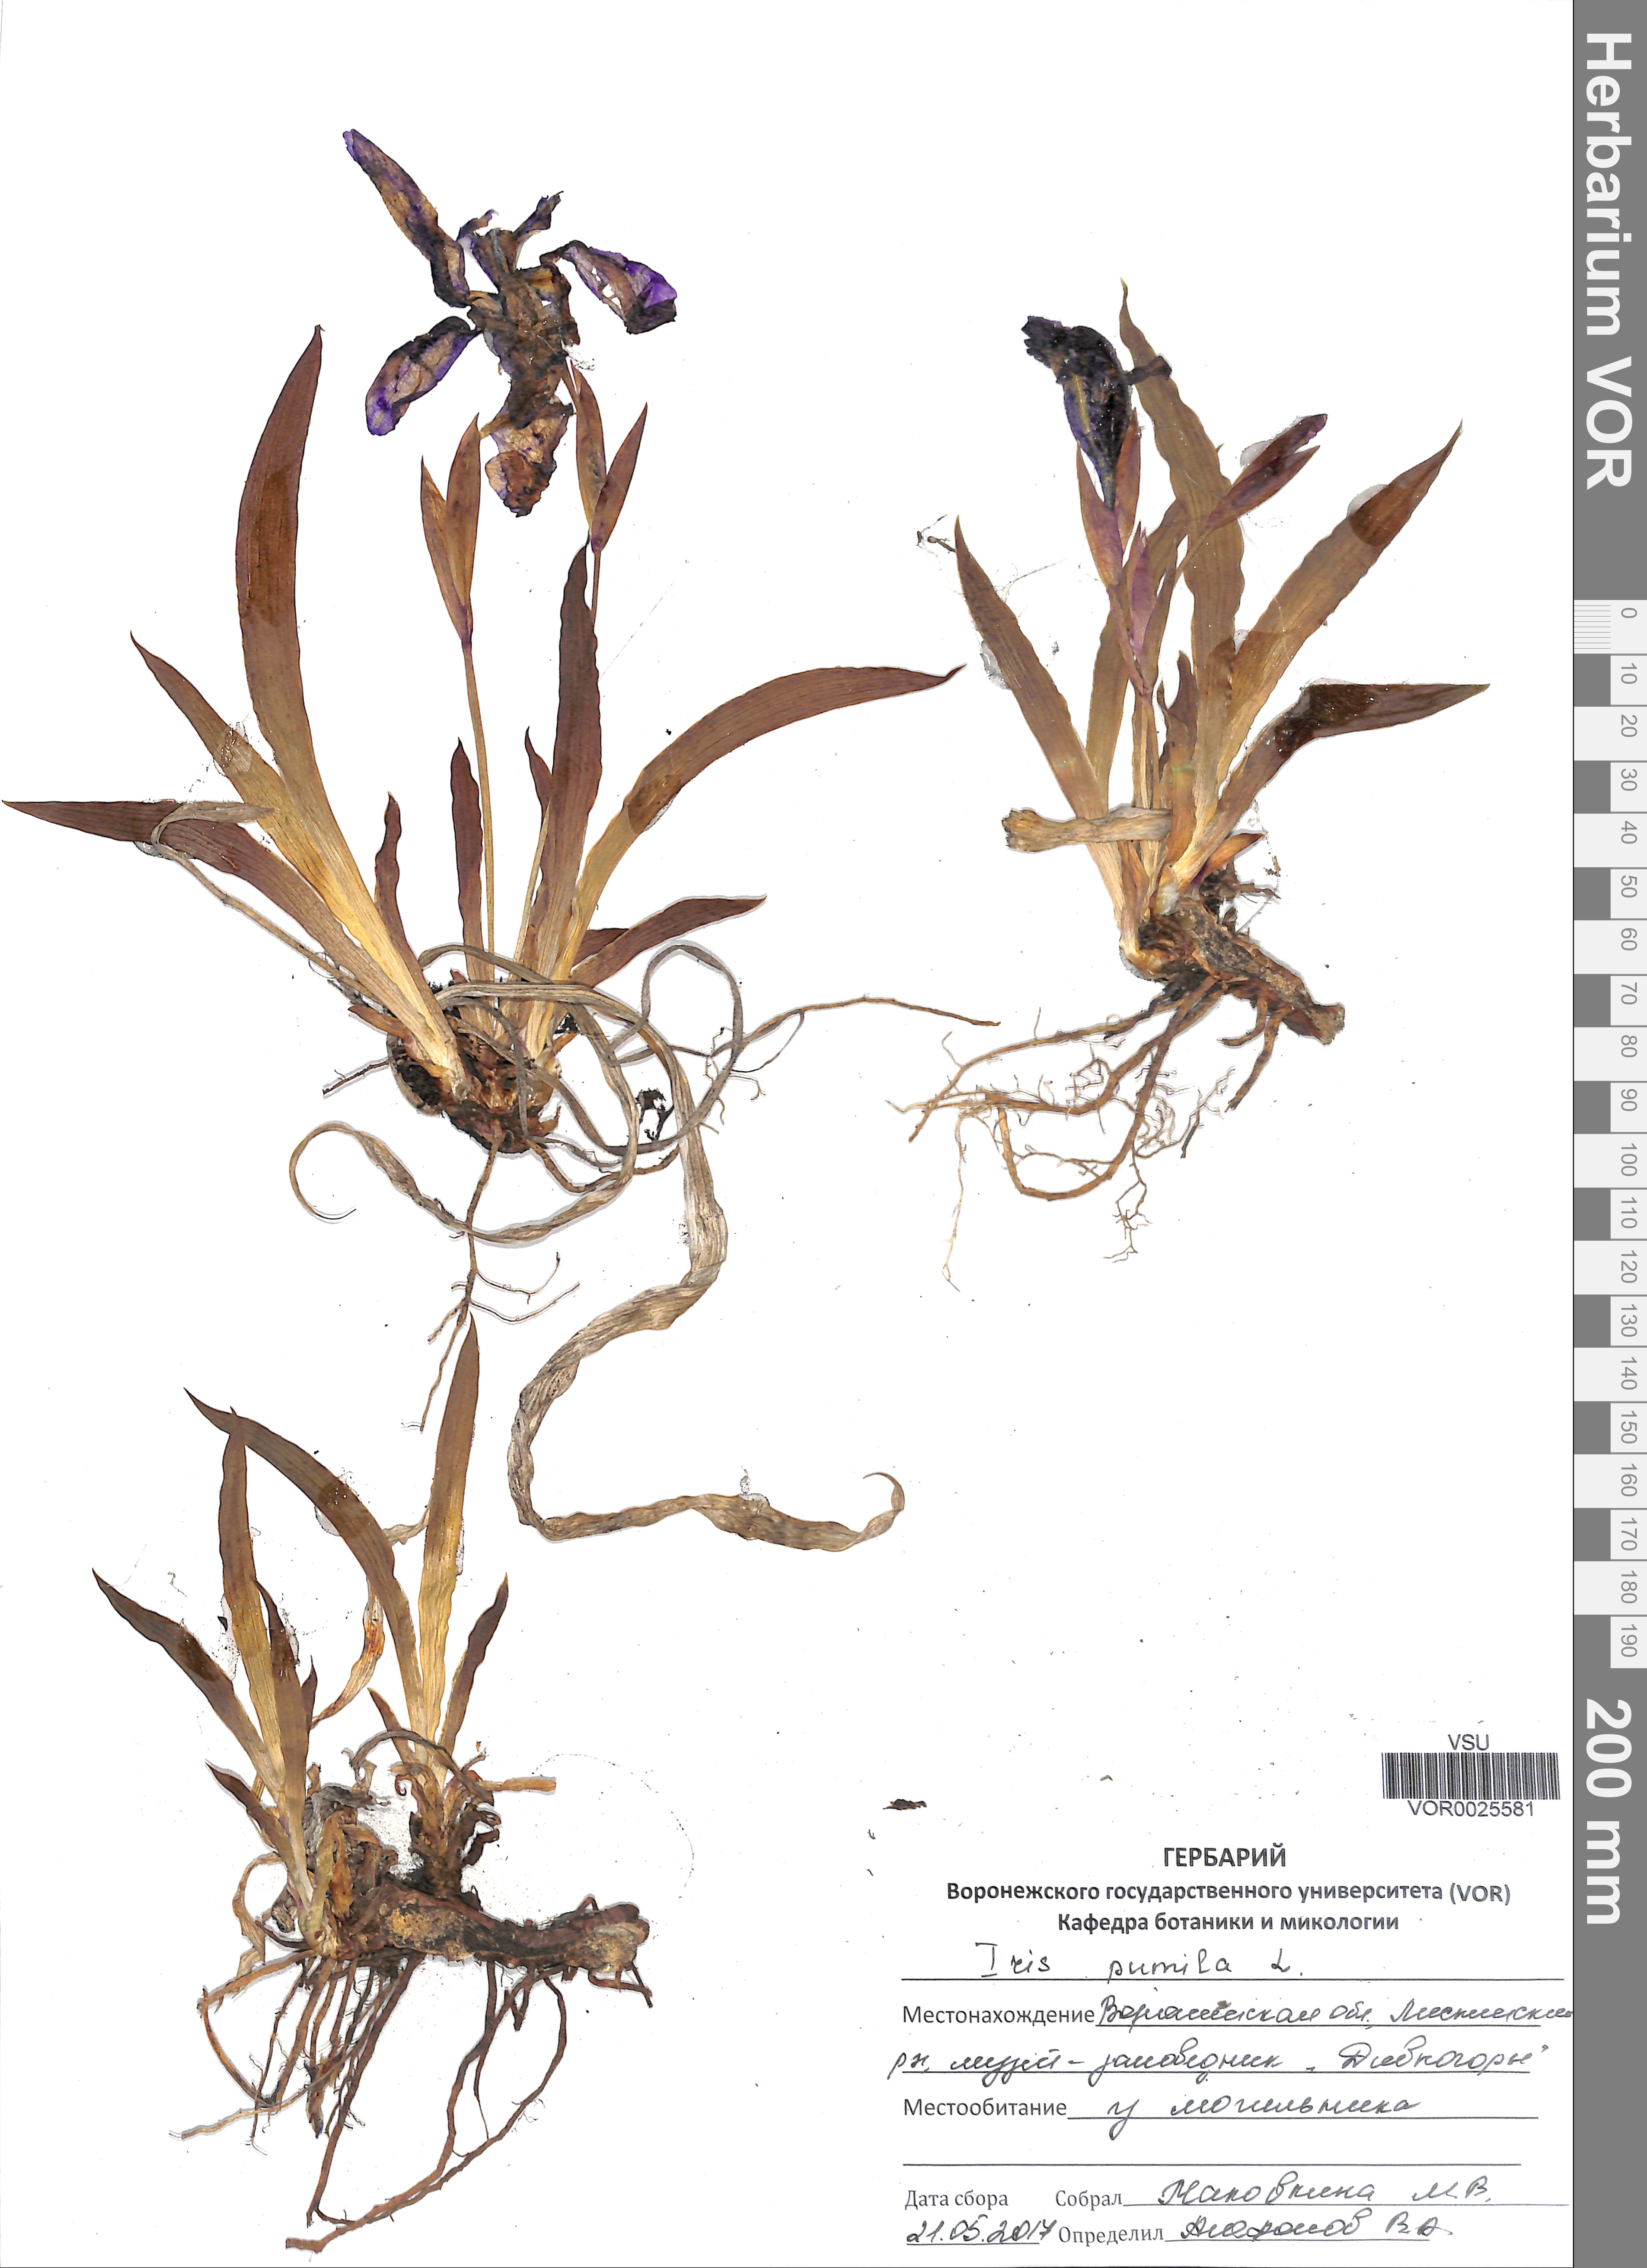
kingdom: Plantae
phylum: Tracheophyta
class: Liliopsida
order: Asparagales
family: Iridaceae
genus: Iris
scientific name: Iris pumila
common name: Dwarf iris
